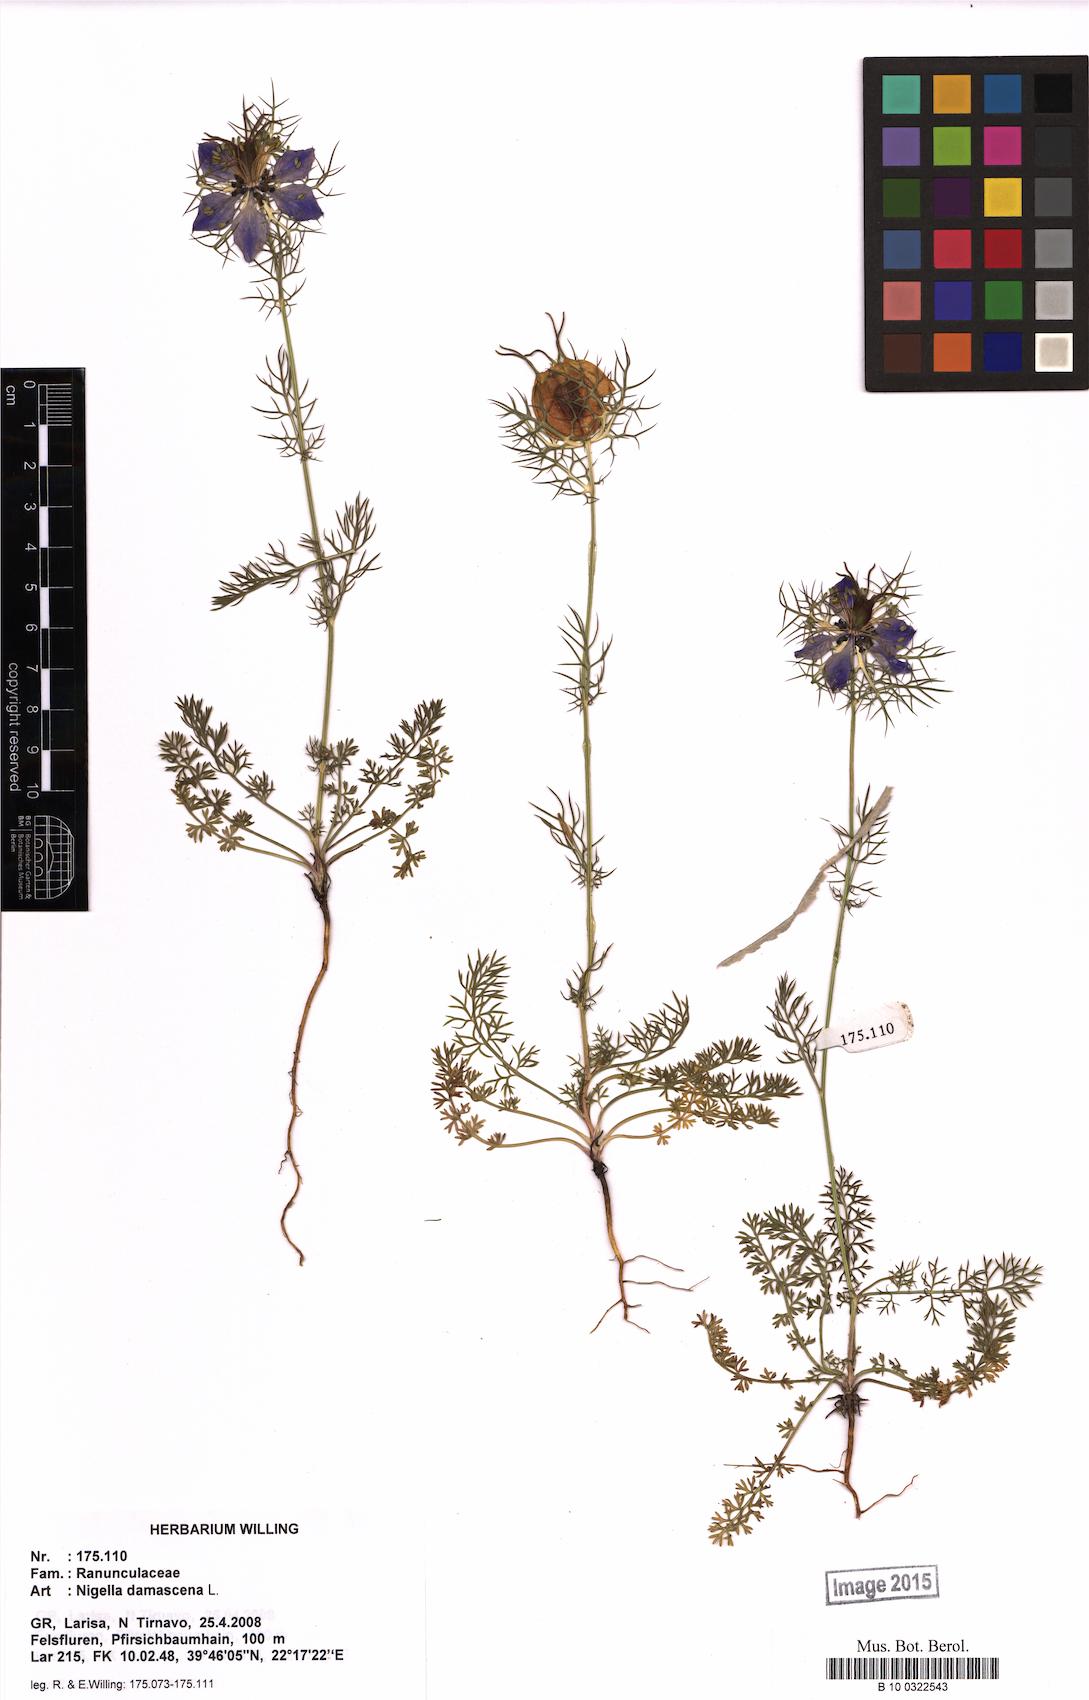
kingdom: Plantae
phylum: Tracheophyta
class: Magnoliopsida
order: Ranunculales
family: Ranunculaceae
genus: Nigella
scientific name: Nigella damascena
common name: Love-in-a-mist
